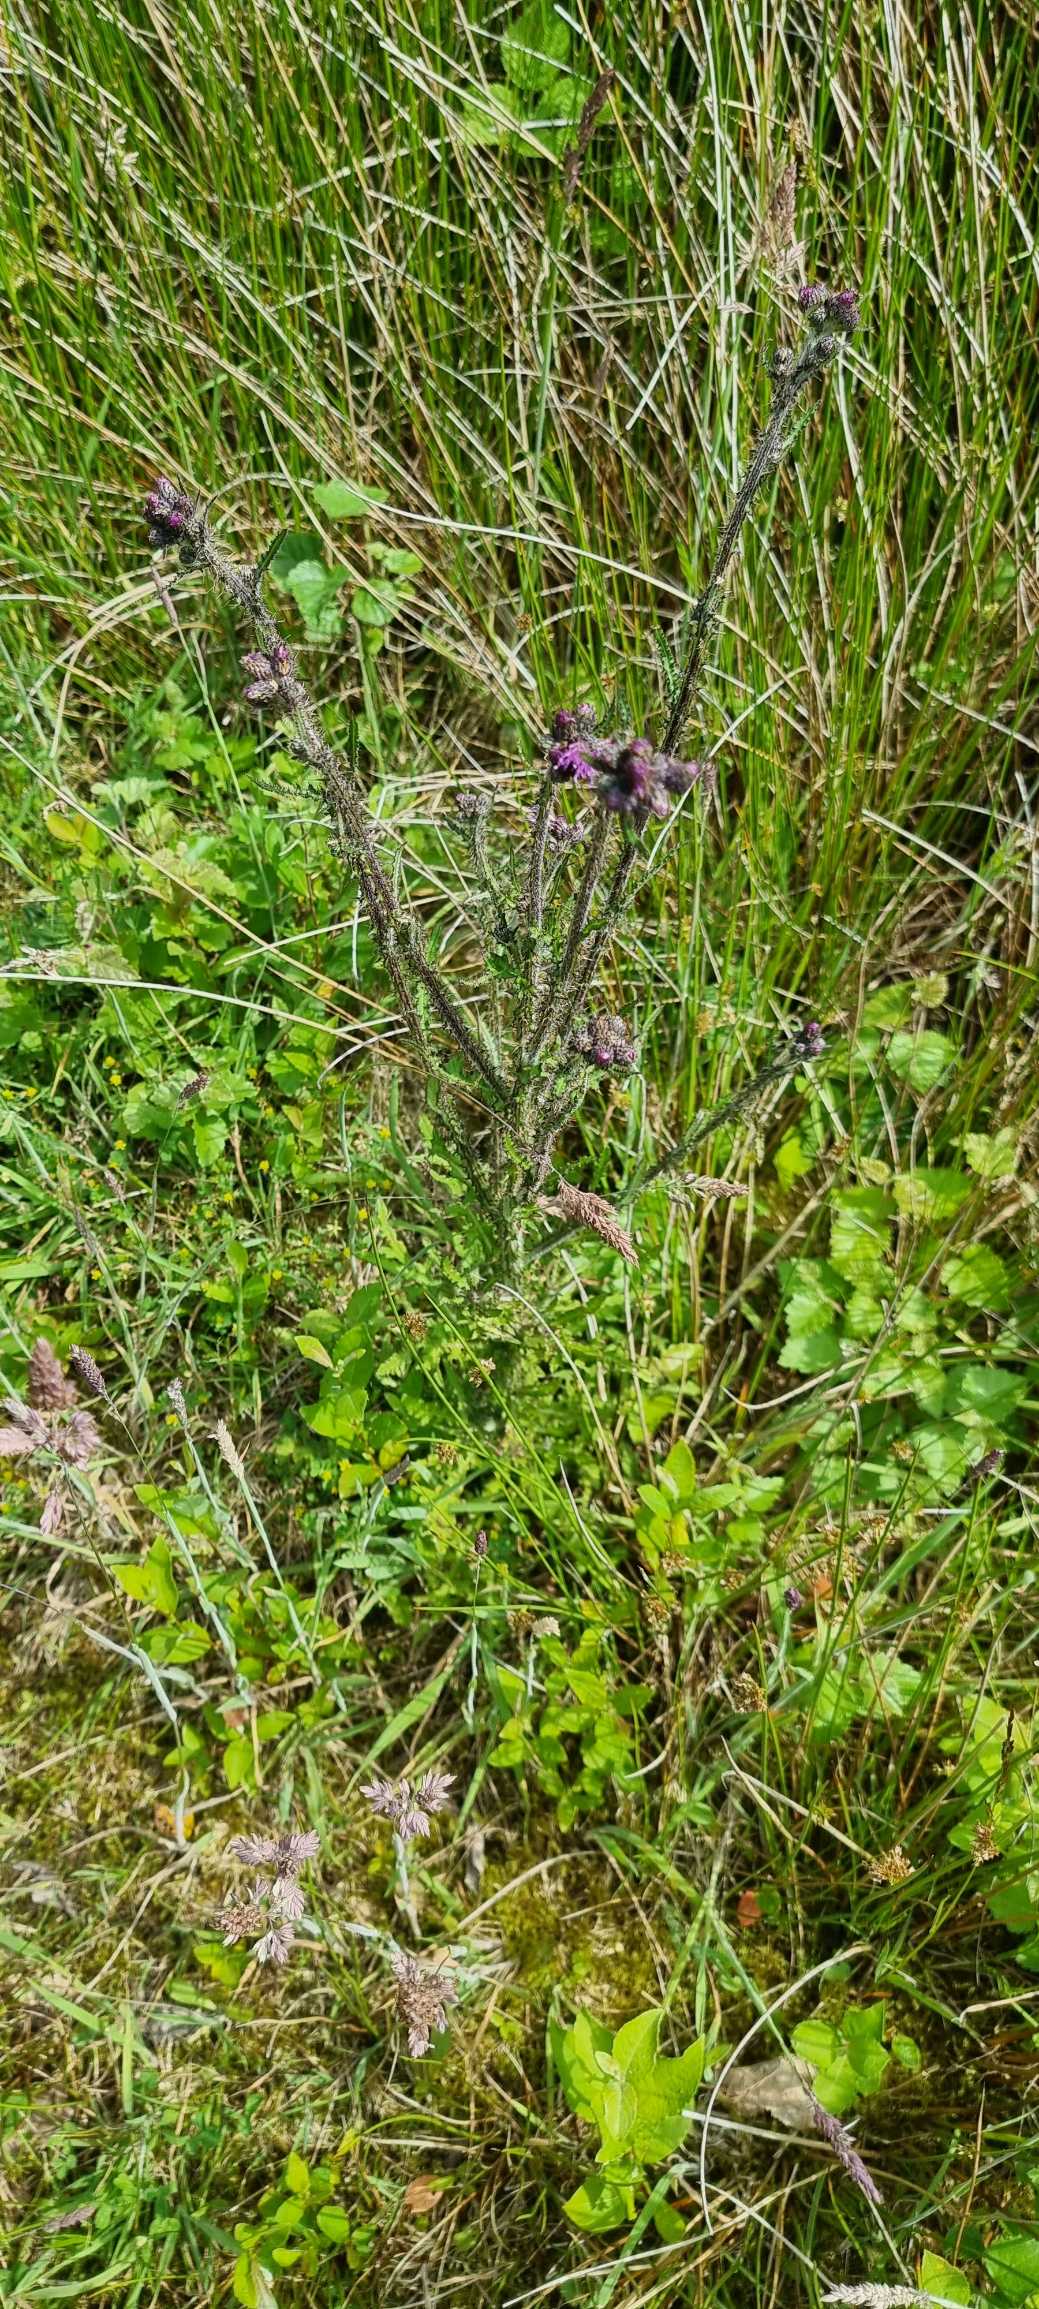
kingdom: Plantae
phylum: Tracheophyta
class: Magnoliopsida
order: Asterales
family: Asteraceae
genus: Cirsium
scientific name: Cirsium palustre
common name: Kær-tidsel
